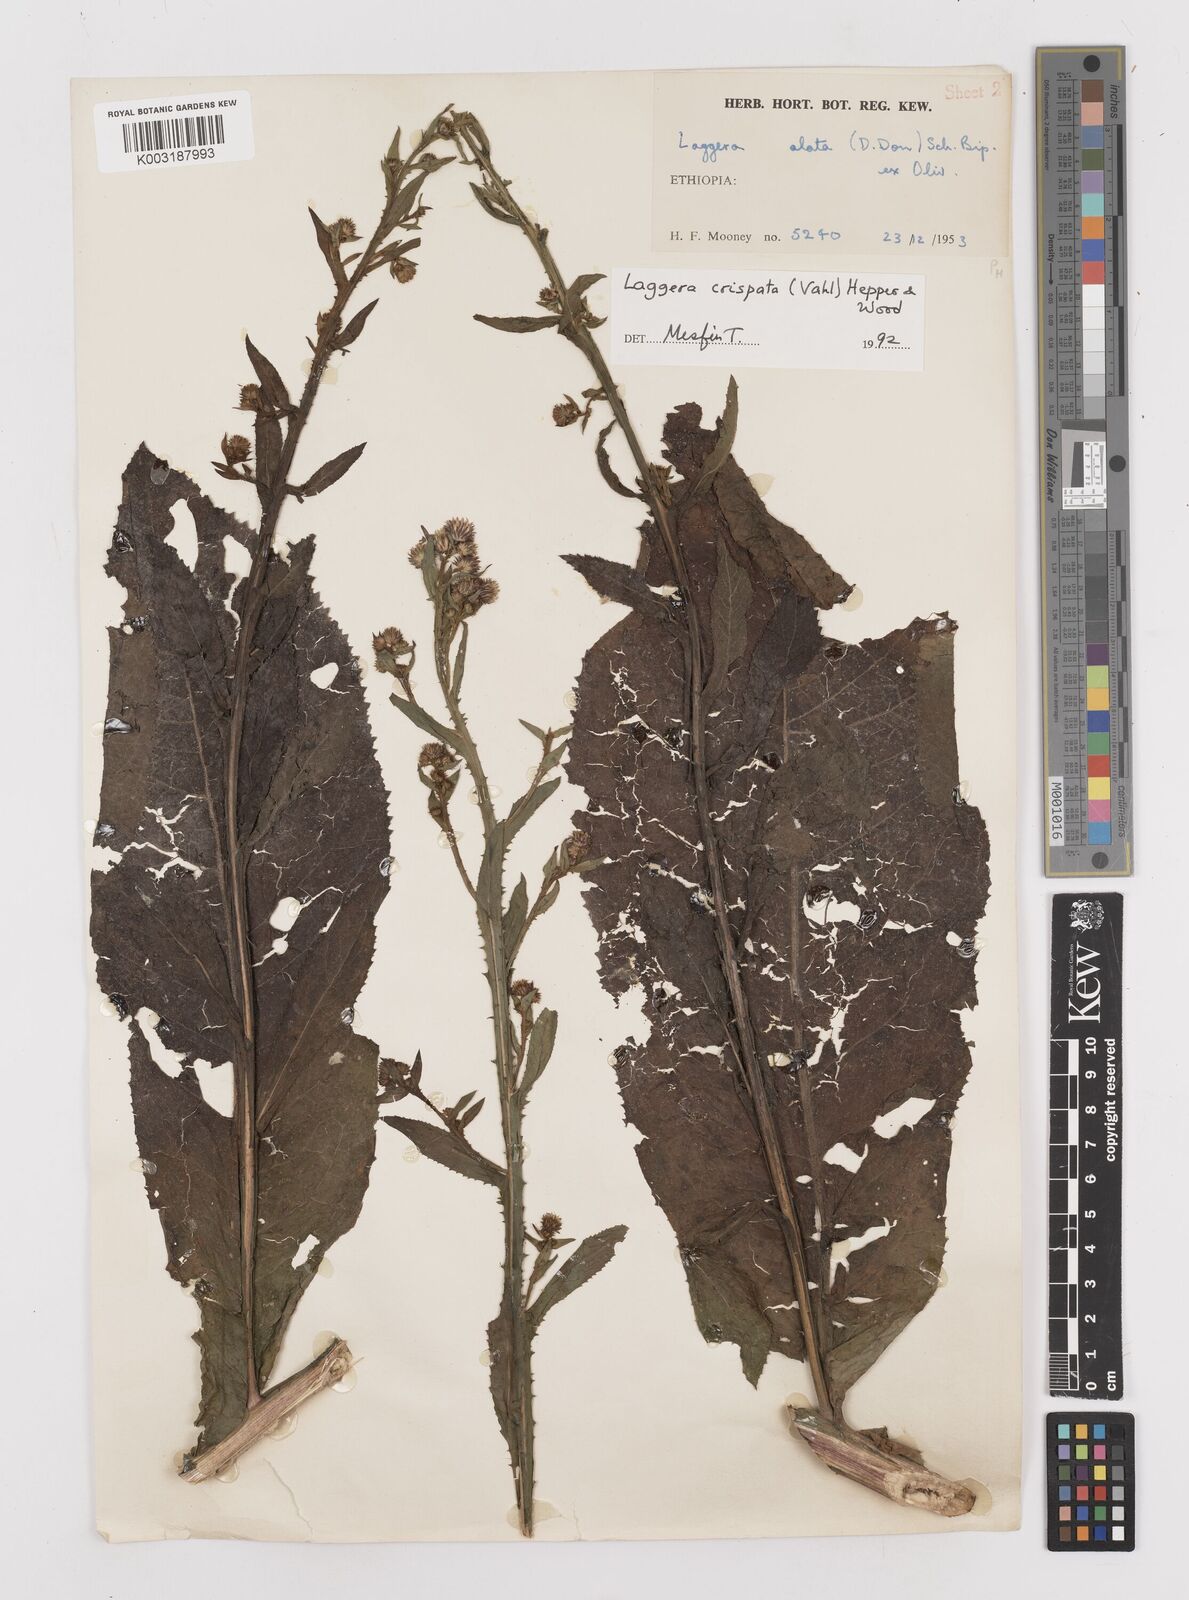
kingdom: Plantae
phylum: Tracheophyta
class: Magnoliopsida
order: Asterales
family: Asteraceae
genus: Laggera
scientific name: Laggera crispata
